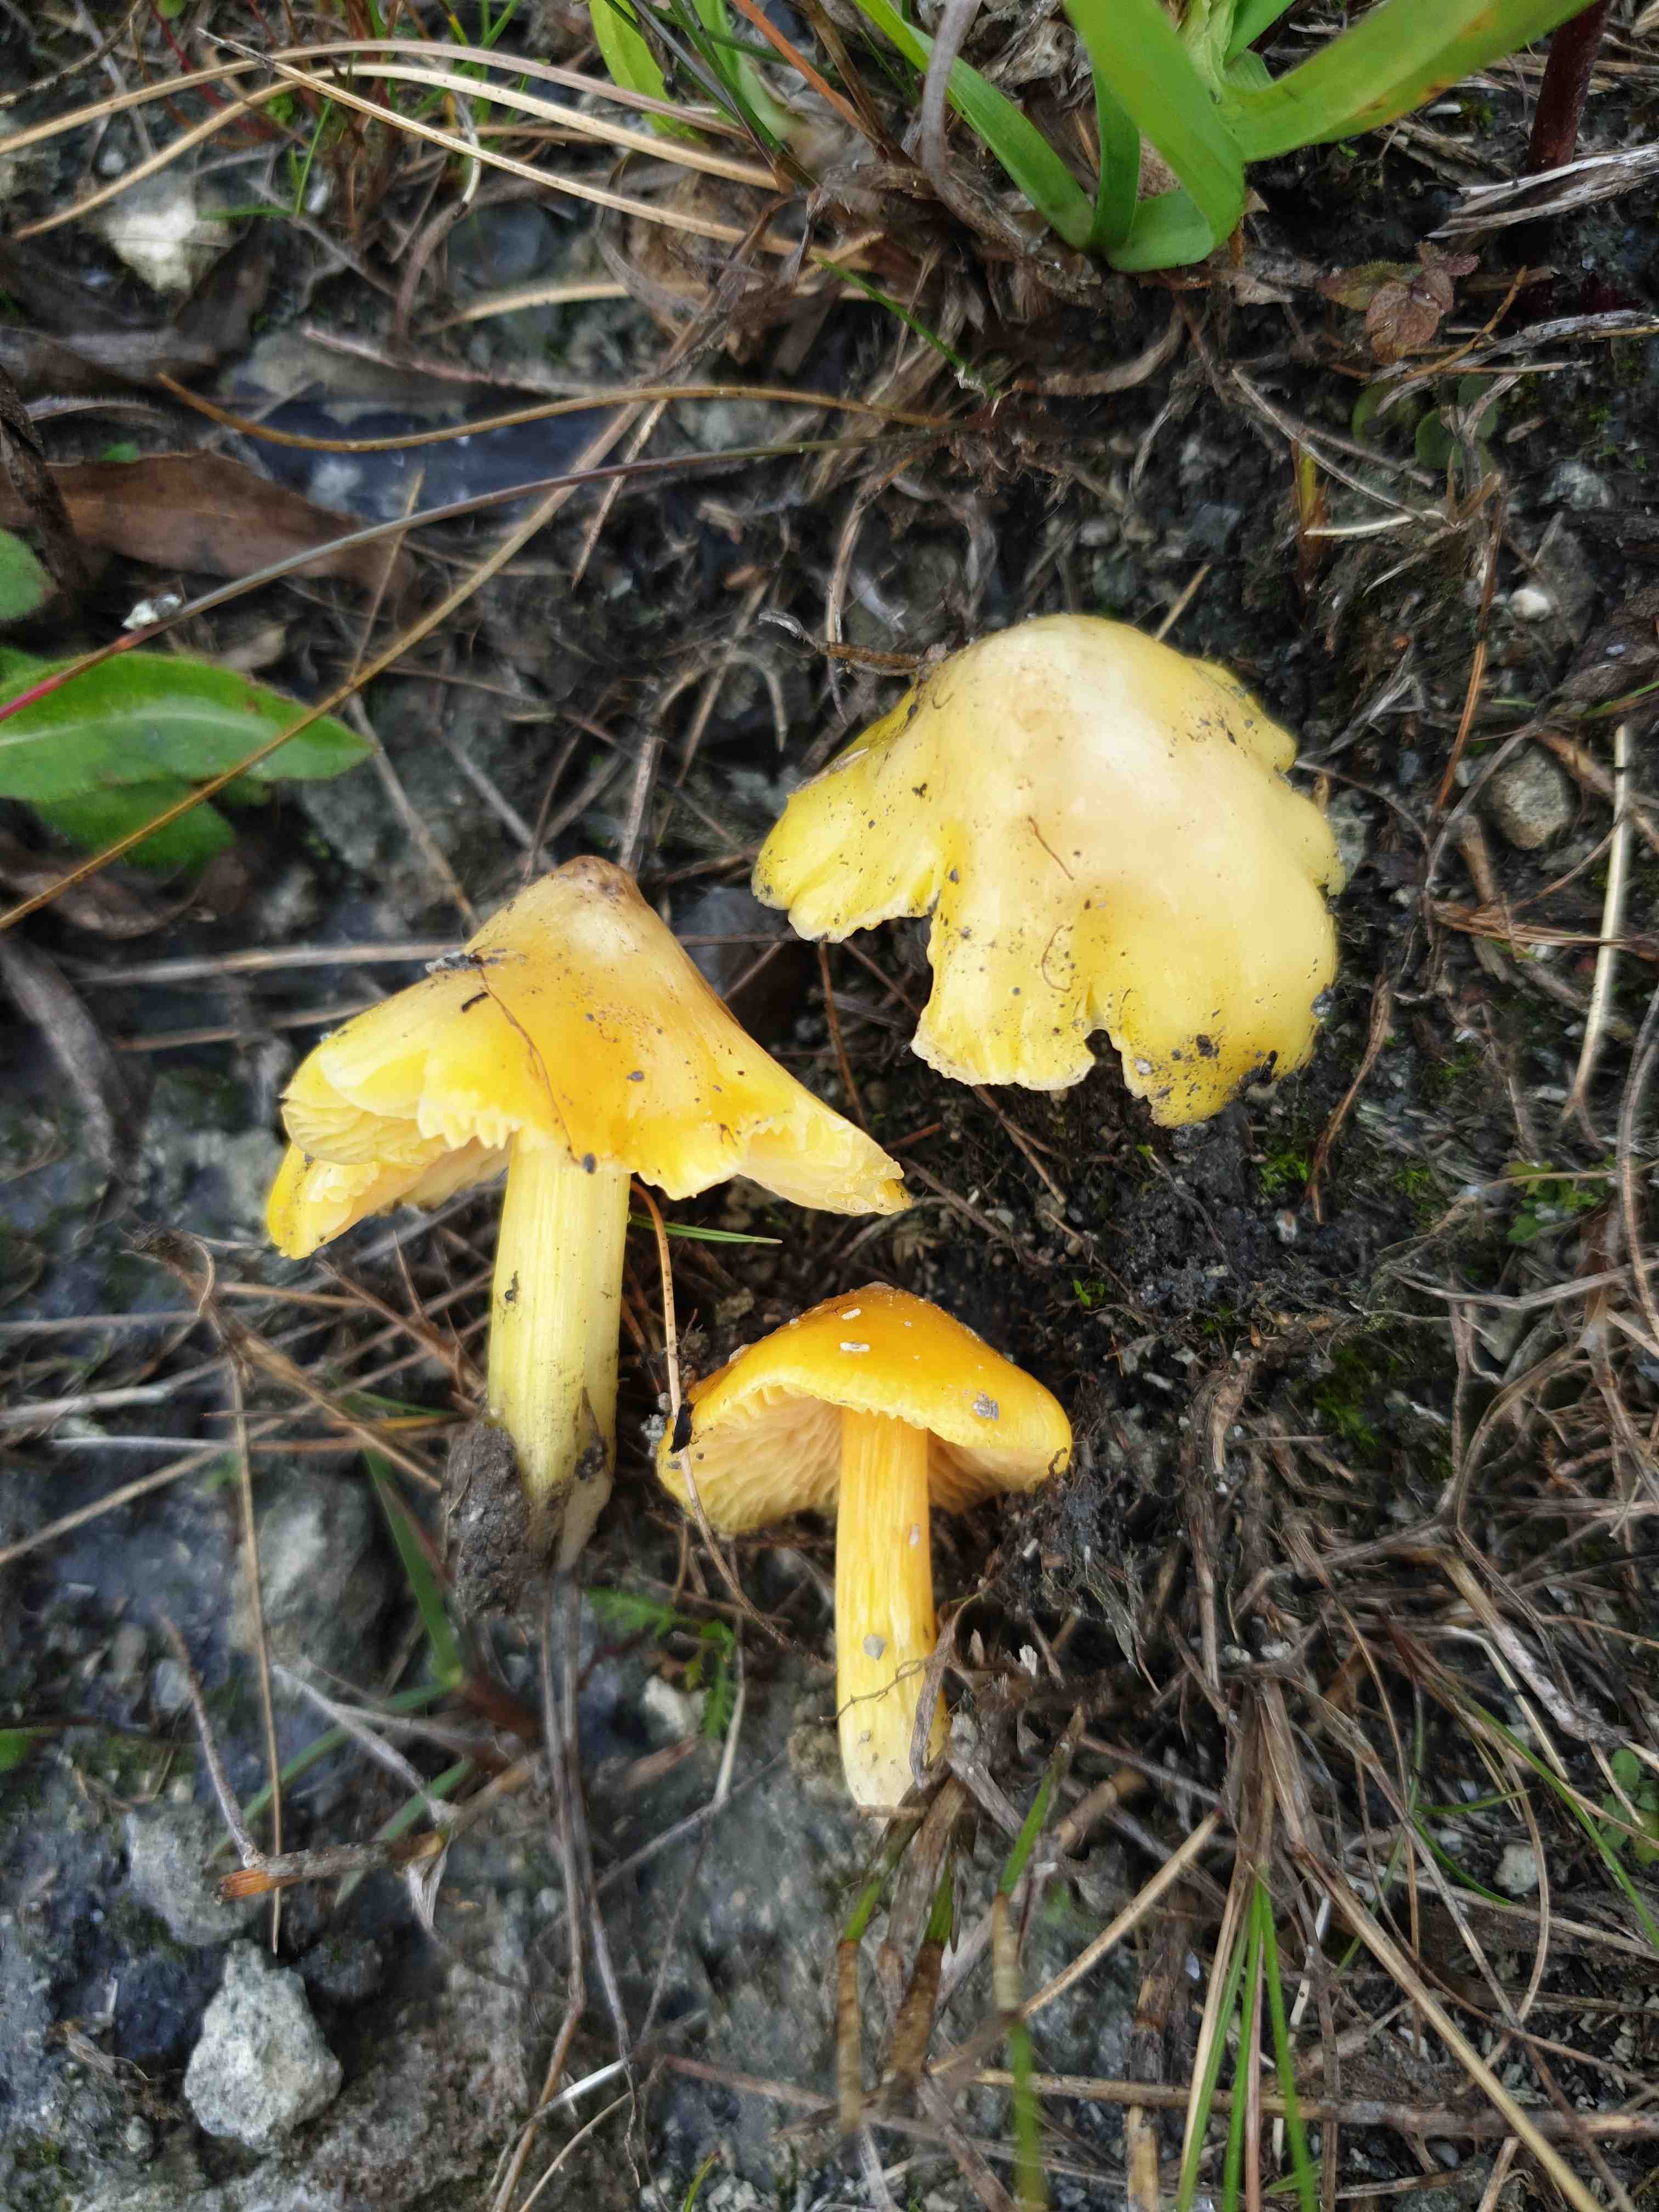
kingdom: Fungi
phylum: Basidiomycota
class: Agaricomycetes
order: Agaricales
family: Hygrophoraceae
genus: Hygrocybe
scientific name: Hygrocybe
